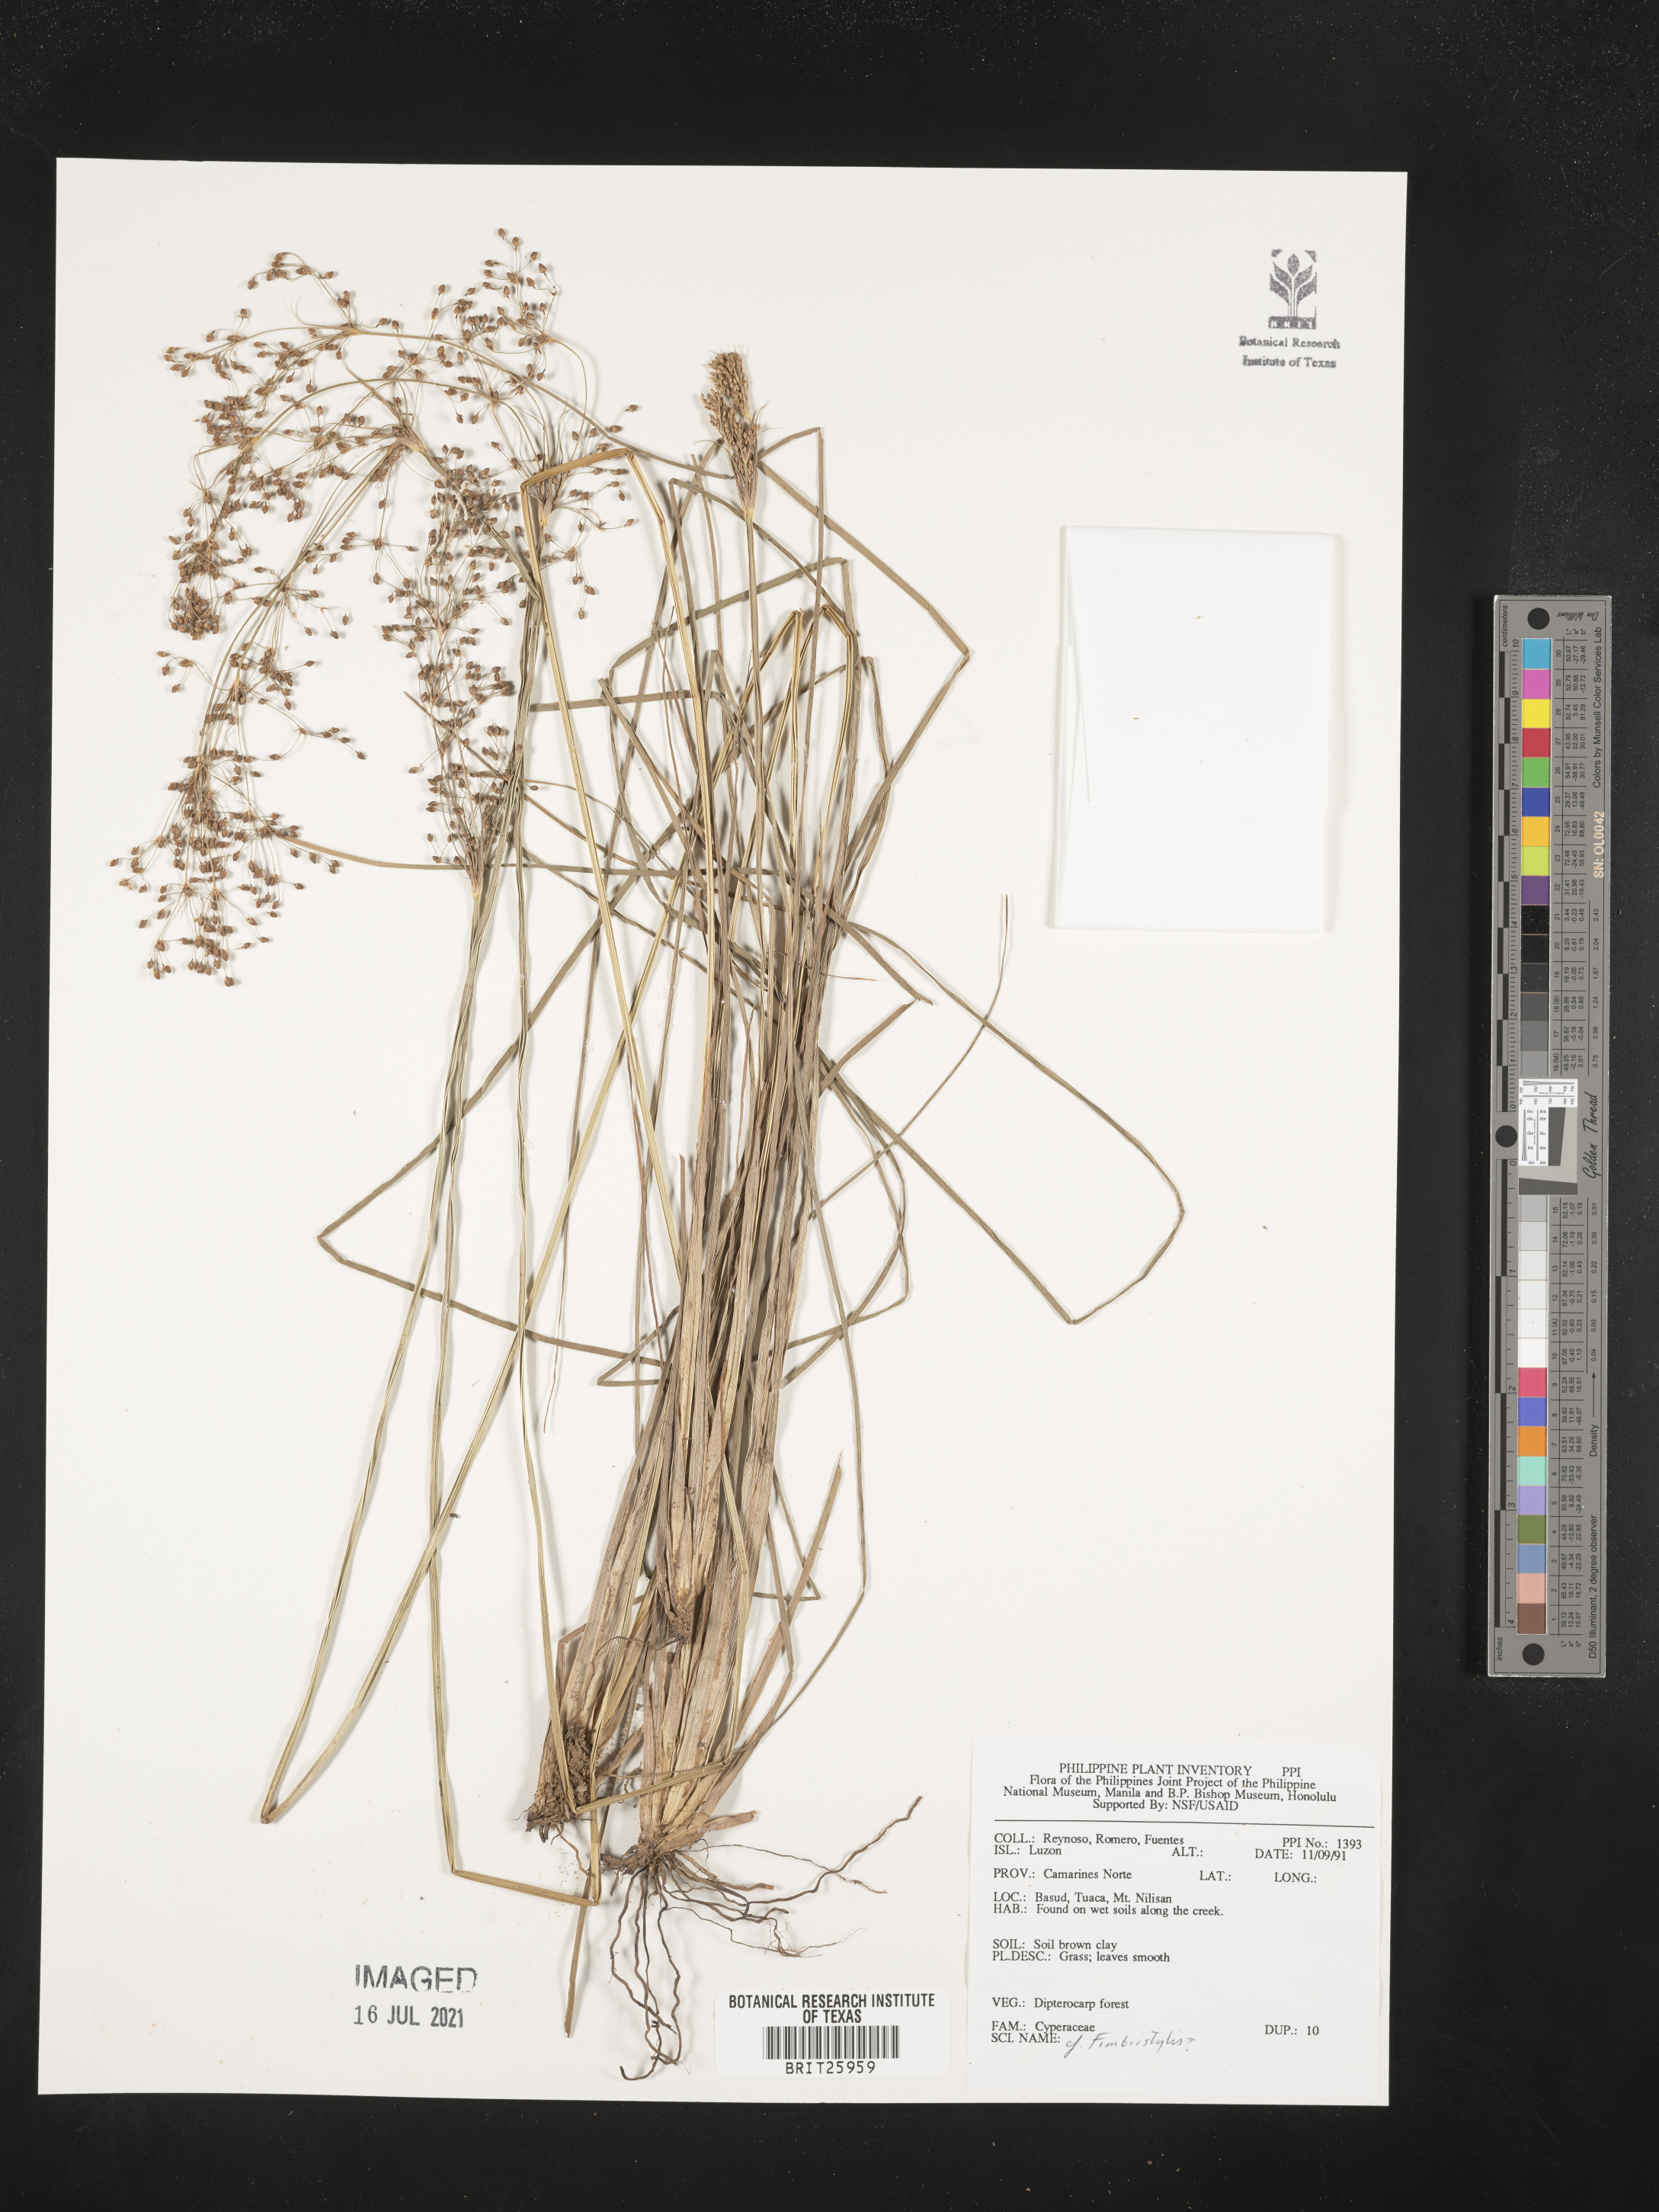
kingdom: Plantae
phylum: Tracheophyta
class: Liliopsida
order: Poales
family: Cyperaceae
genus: Fimbristylis
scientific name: Fimbristylis
